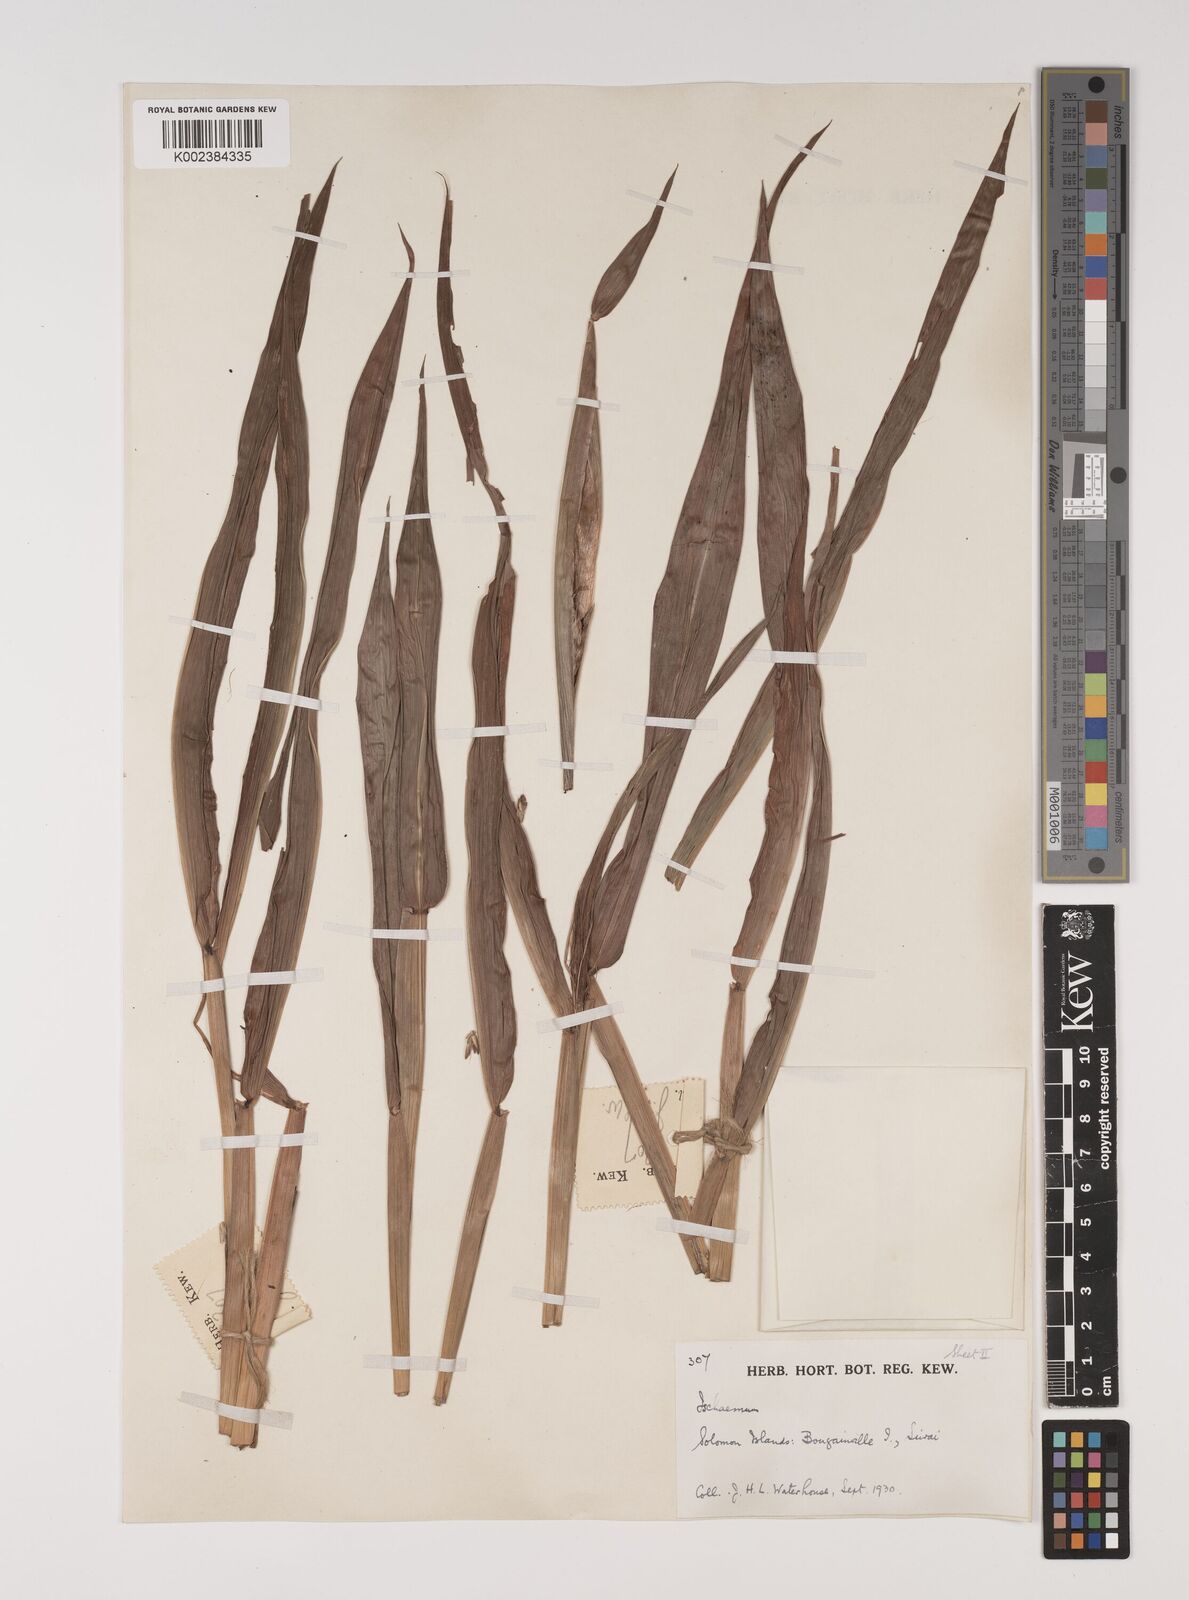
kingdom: Plantae
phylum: Tracheophyta
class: Liliopsida
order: Poales
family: Poaceae
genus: Ischaemum
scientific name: Ischaemum muticum
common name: Drought grass
